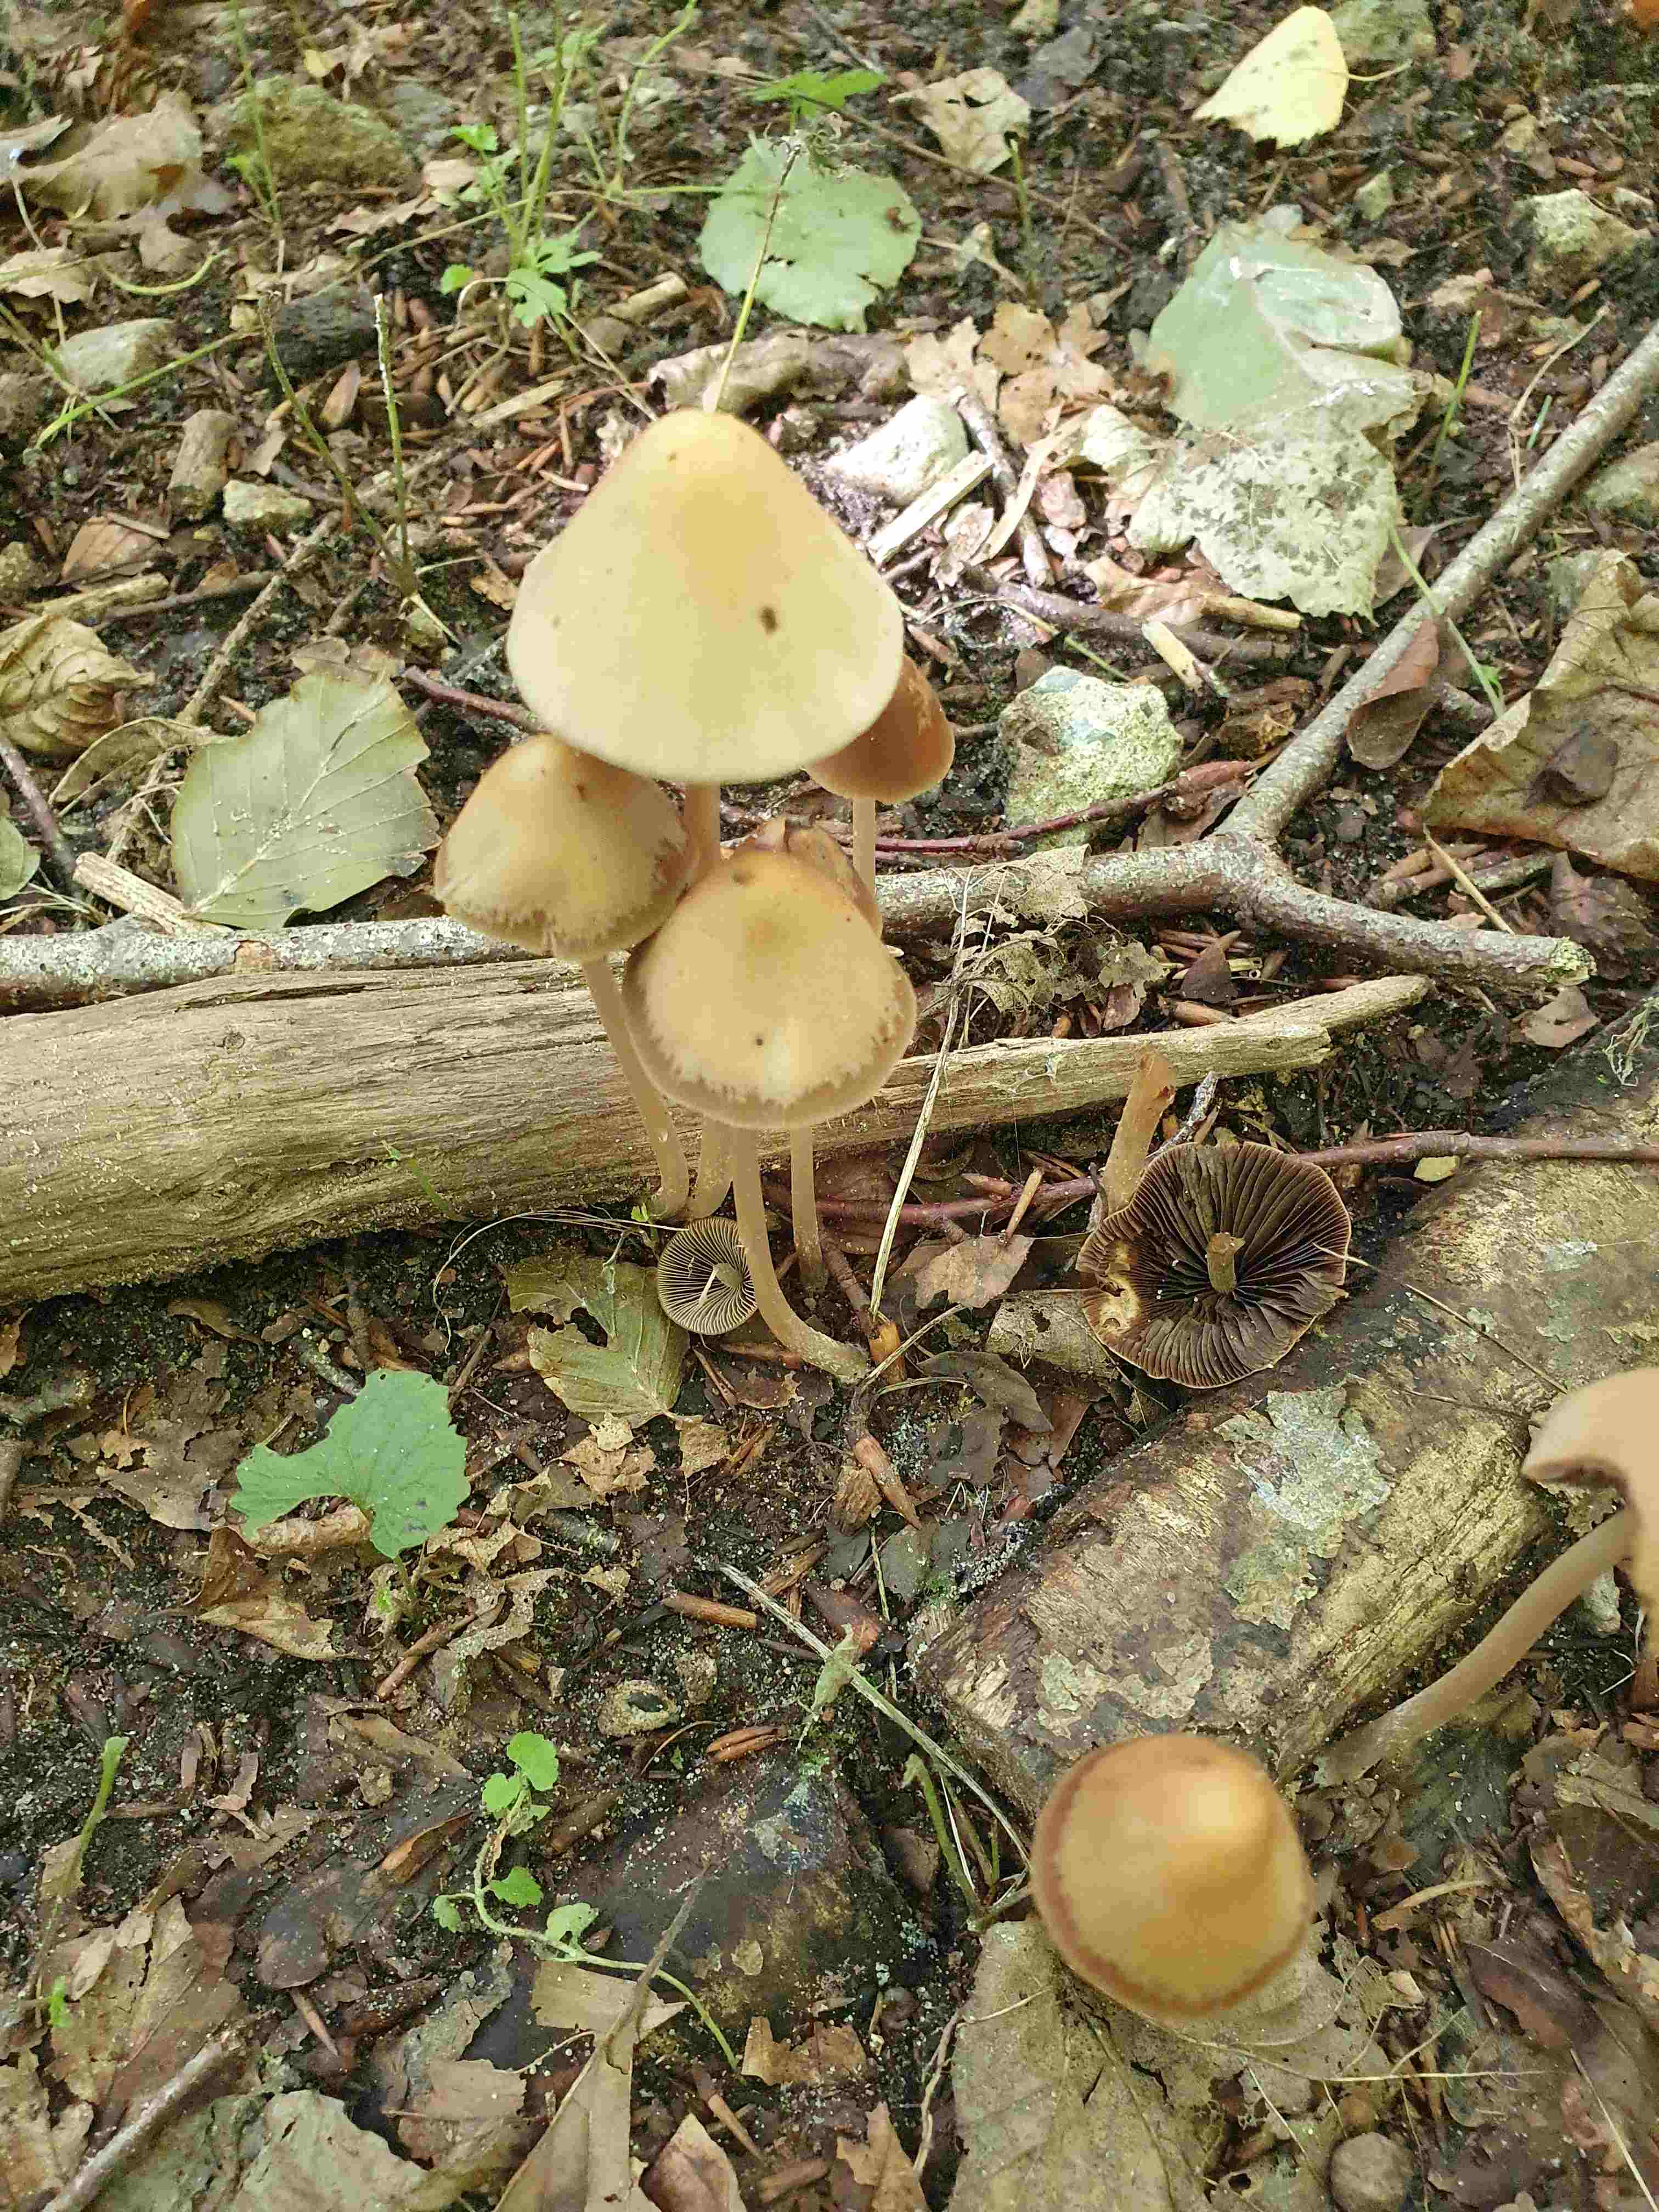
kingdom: Fungi
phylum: Basidiomycota
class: Agaricomycetes
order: Agaricales
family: Psathyrellaceae
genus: Parasola
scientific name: Parasola conopilea
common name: kegle-hjulhat
